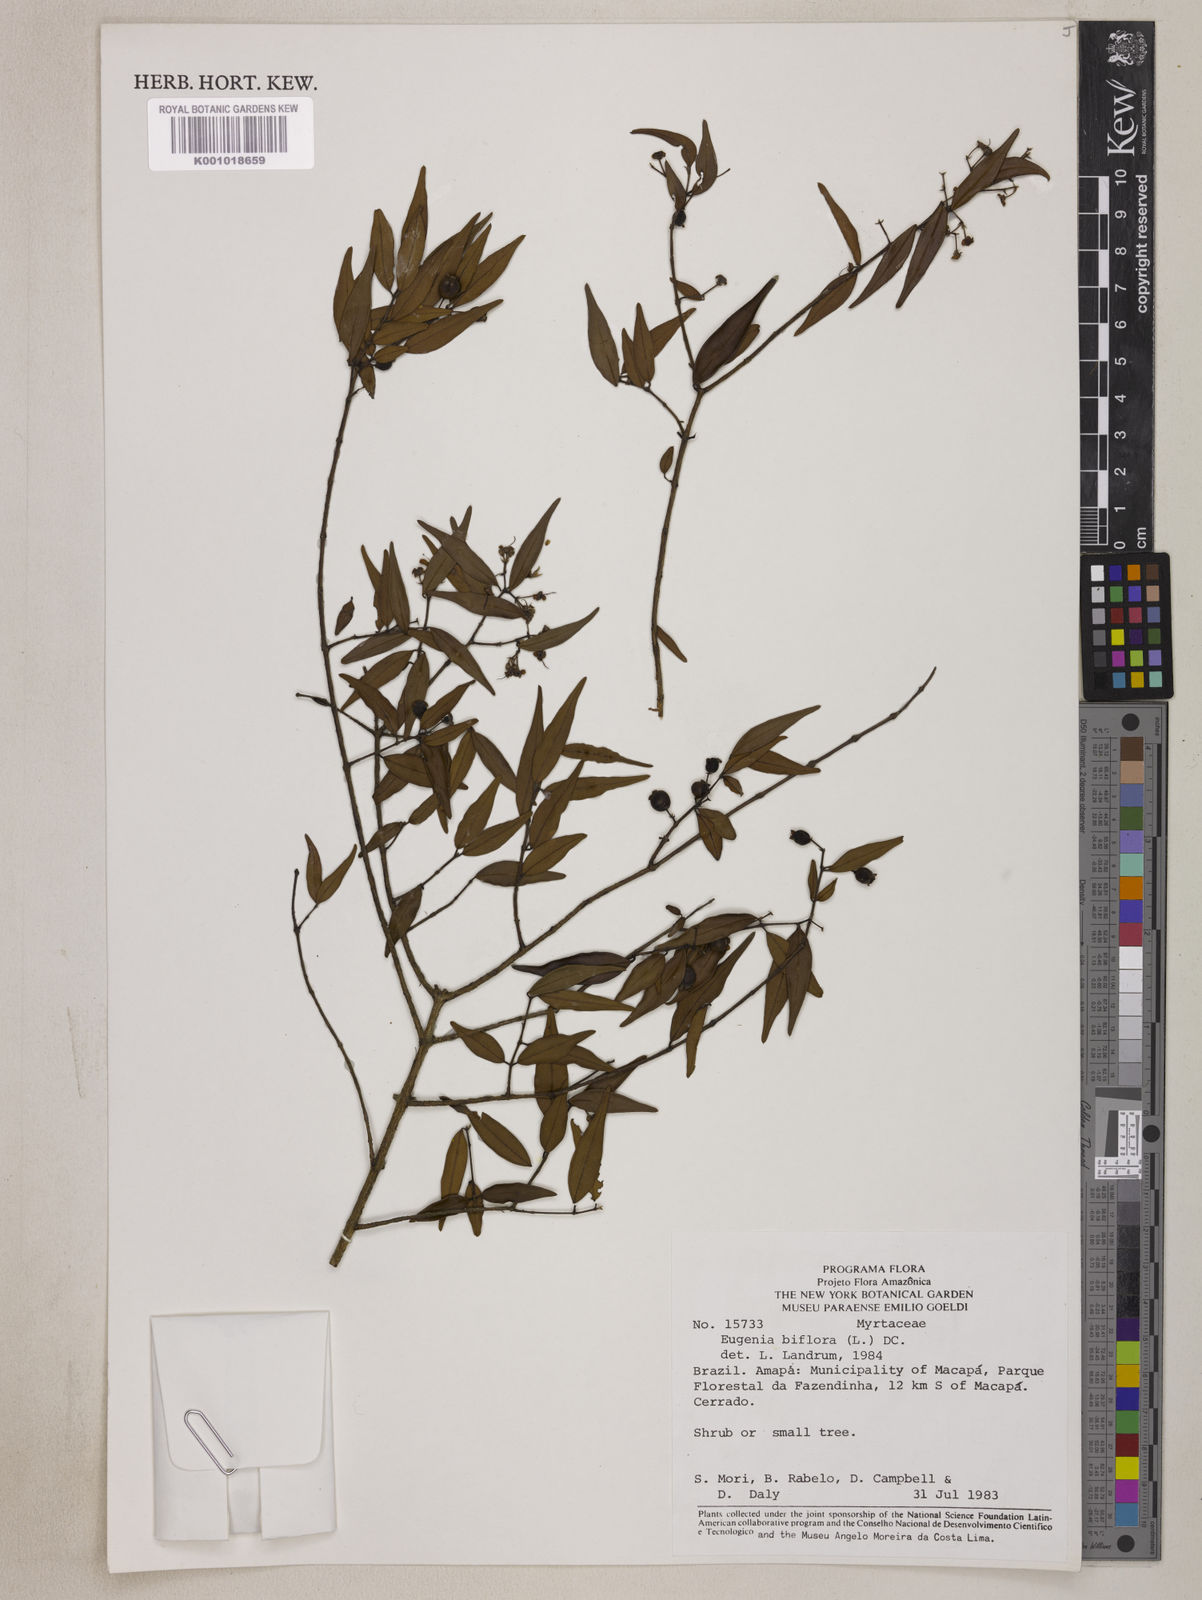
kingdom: Plantae
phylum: Tracheophyta
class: Magnoliopsida
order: Myrtales
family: Myrtaceae
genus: Eugenia
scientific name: Eugenia biflora
